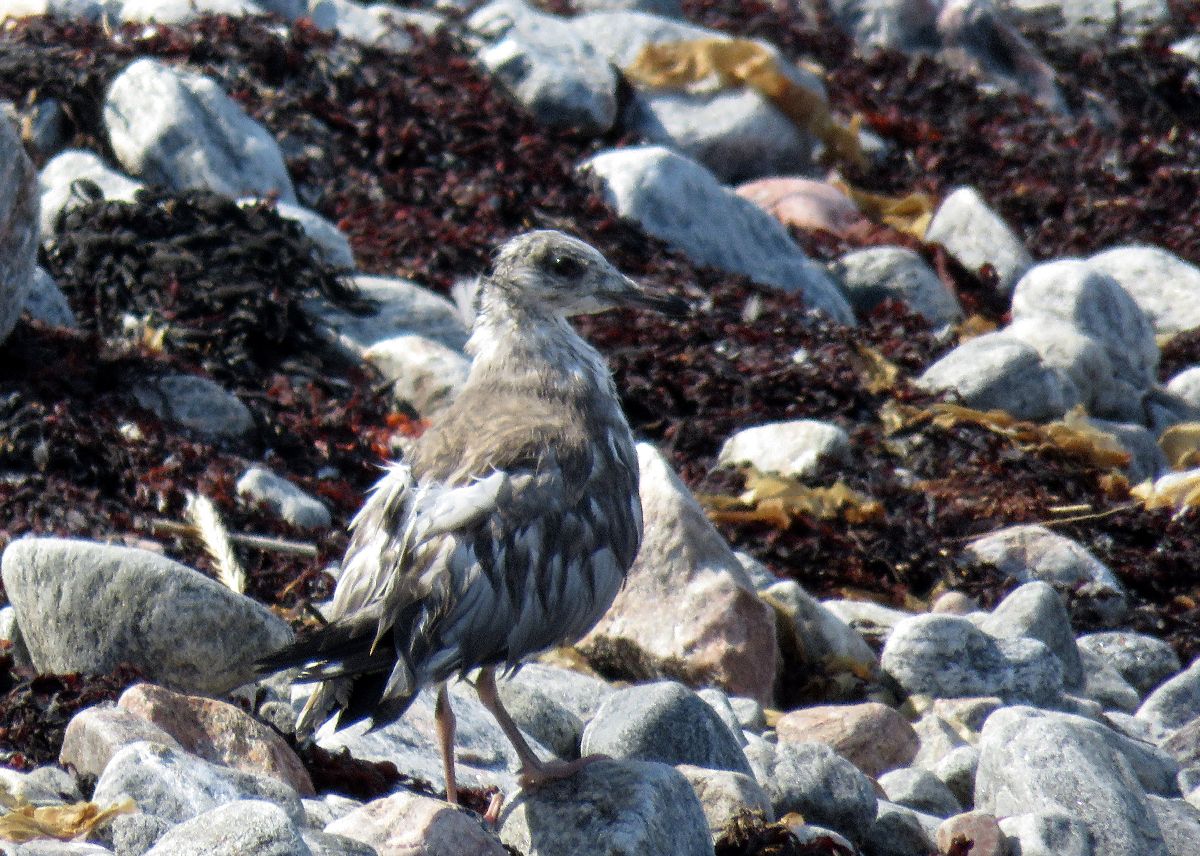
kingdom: Animalia
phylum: Chordata
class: Aves
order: Charadriiformes
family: Laridae
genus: Larus
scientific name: Larus canus
